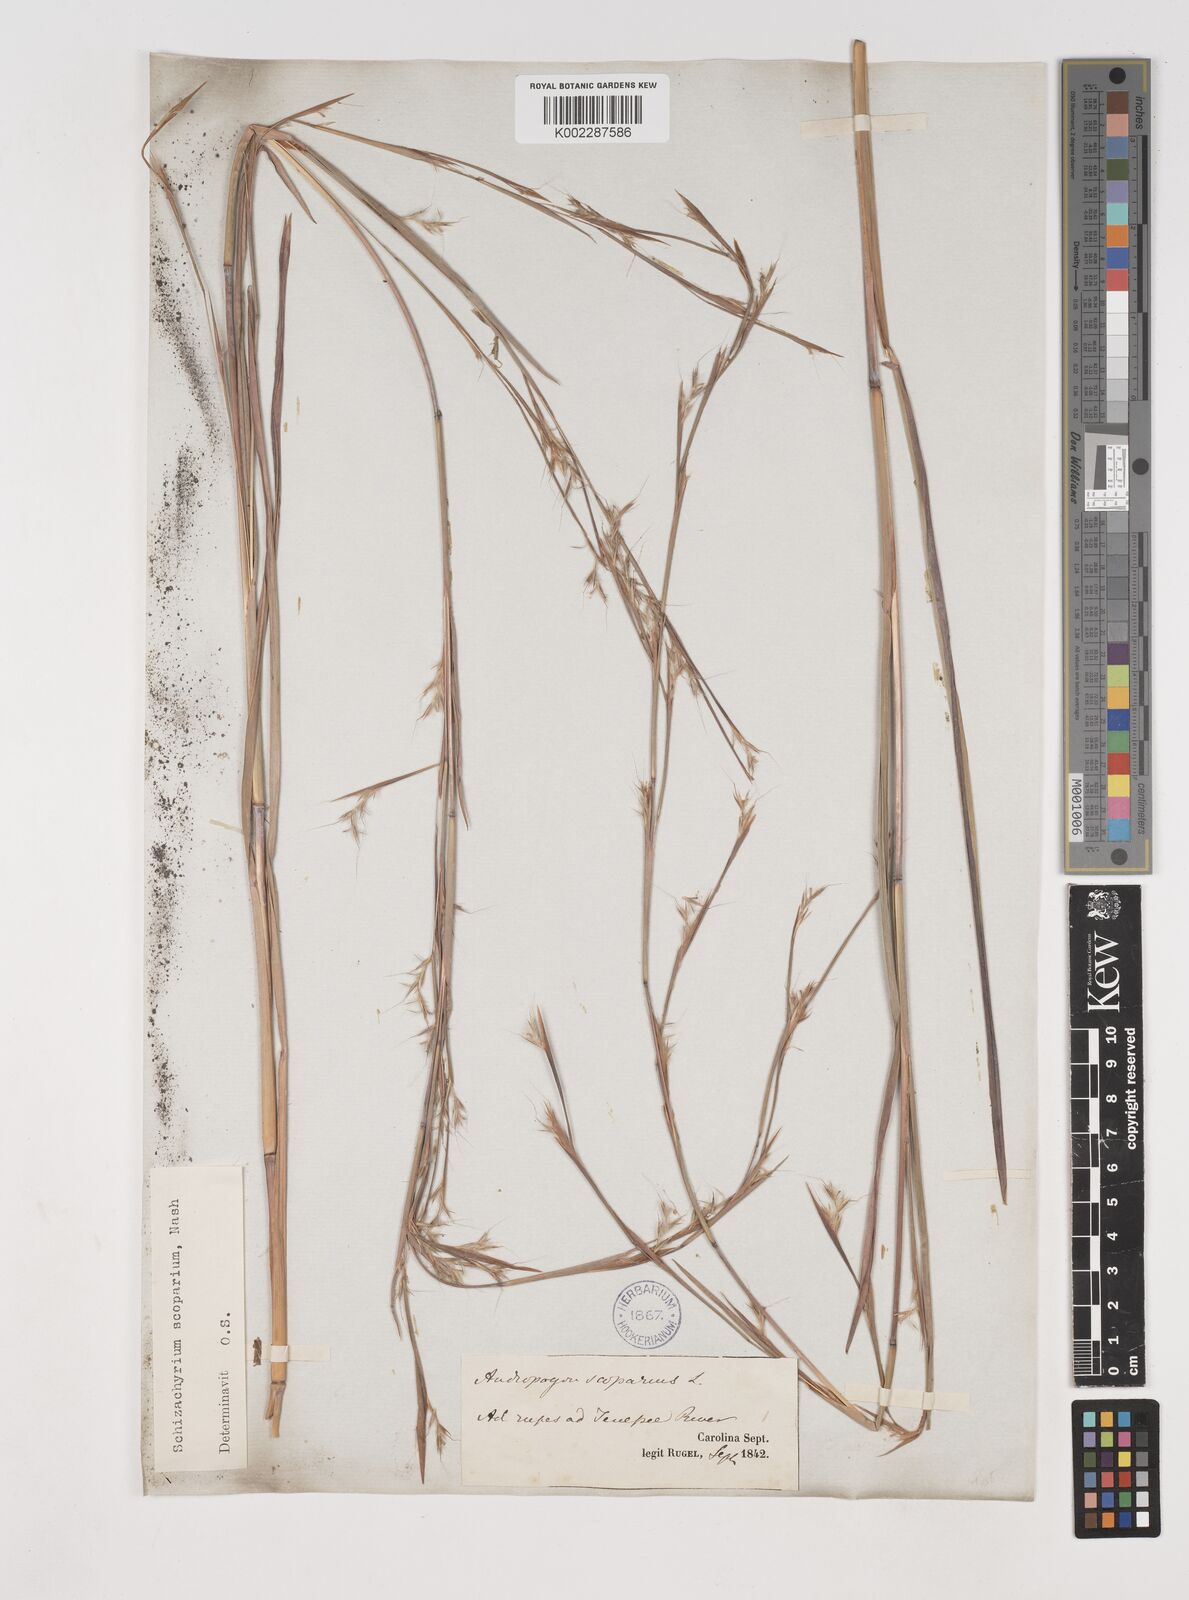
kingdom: Plantae
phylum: Tracheophyta
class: Liliopsida
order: Poales
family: Poaceae
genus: Schizachyrium
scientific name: Schizachyrium scoparium
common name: Little bluestem
